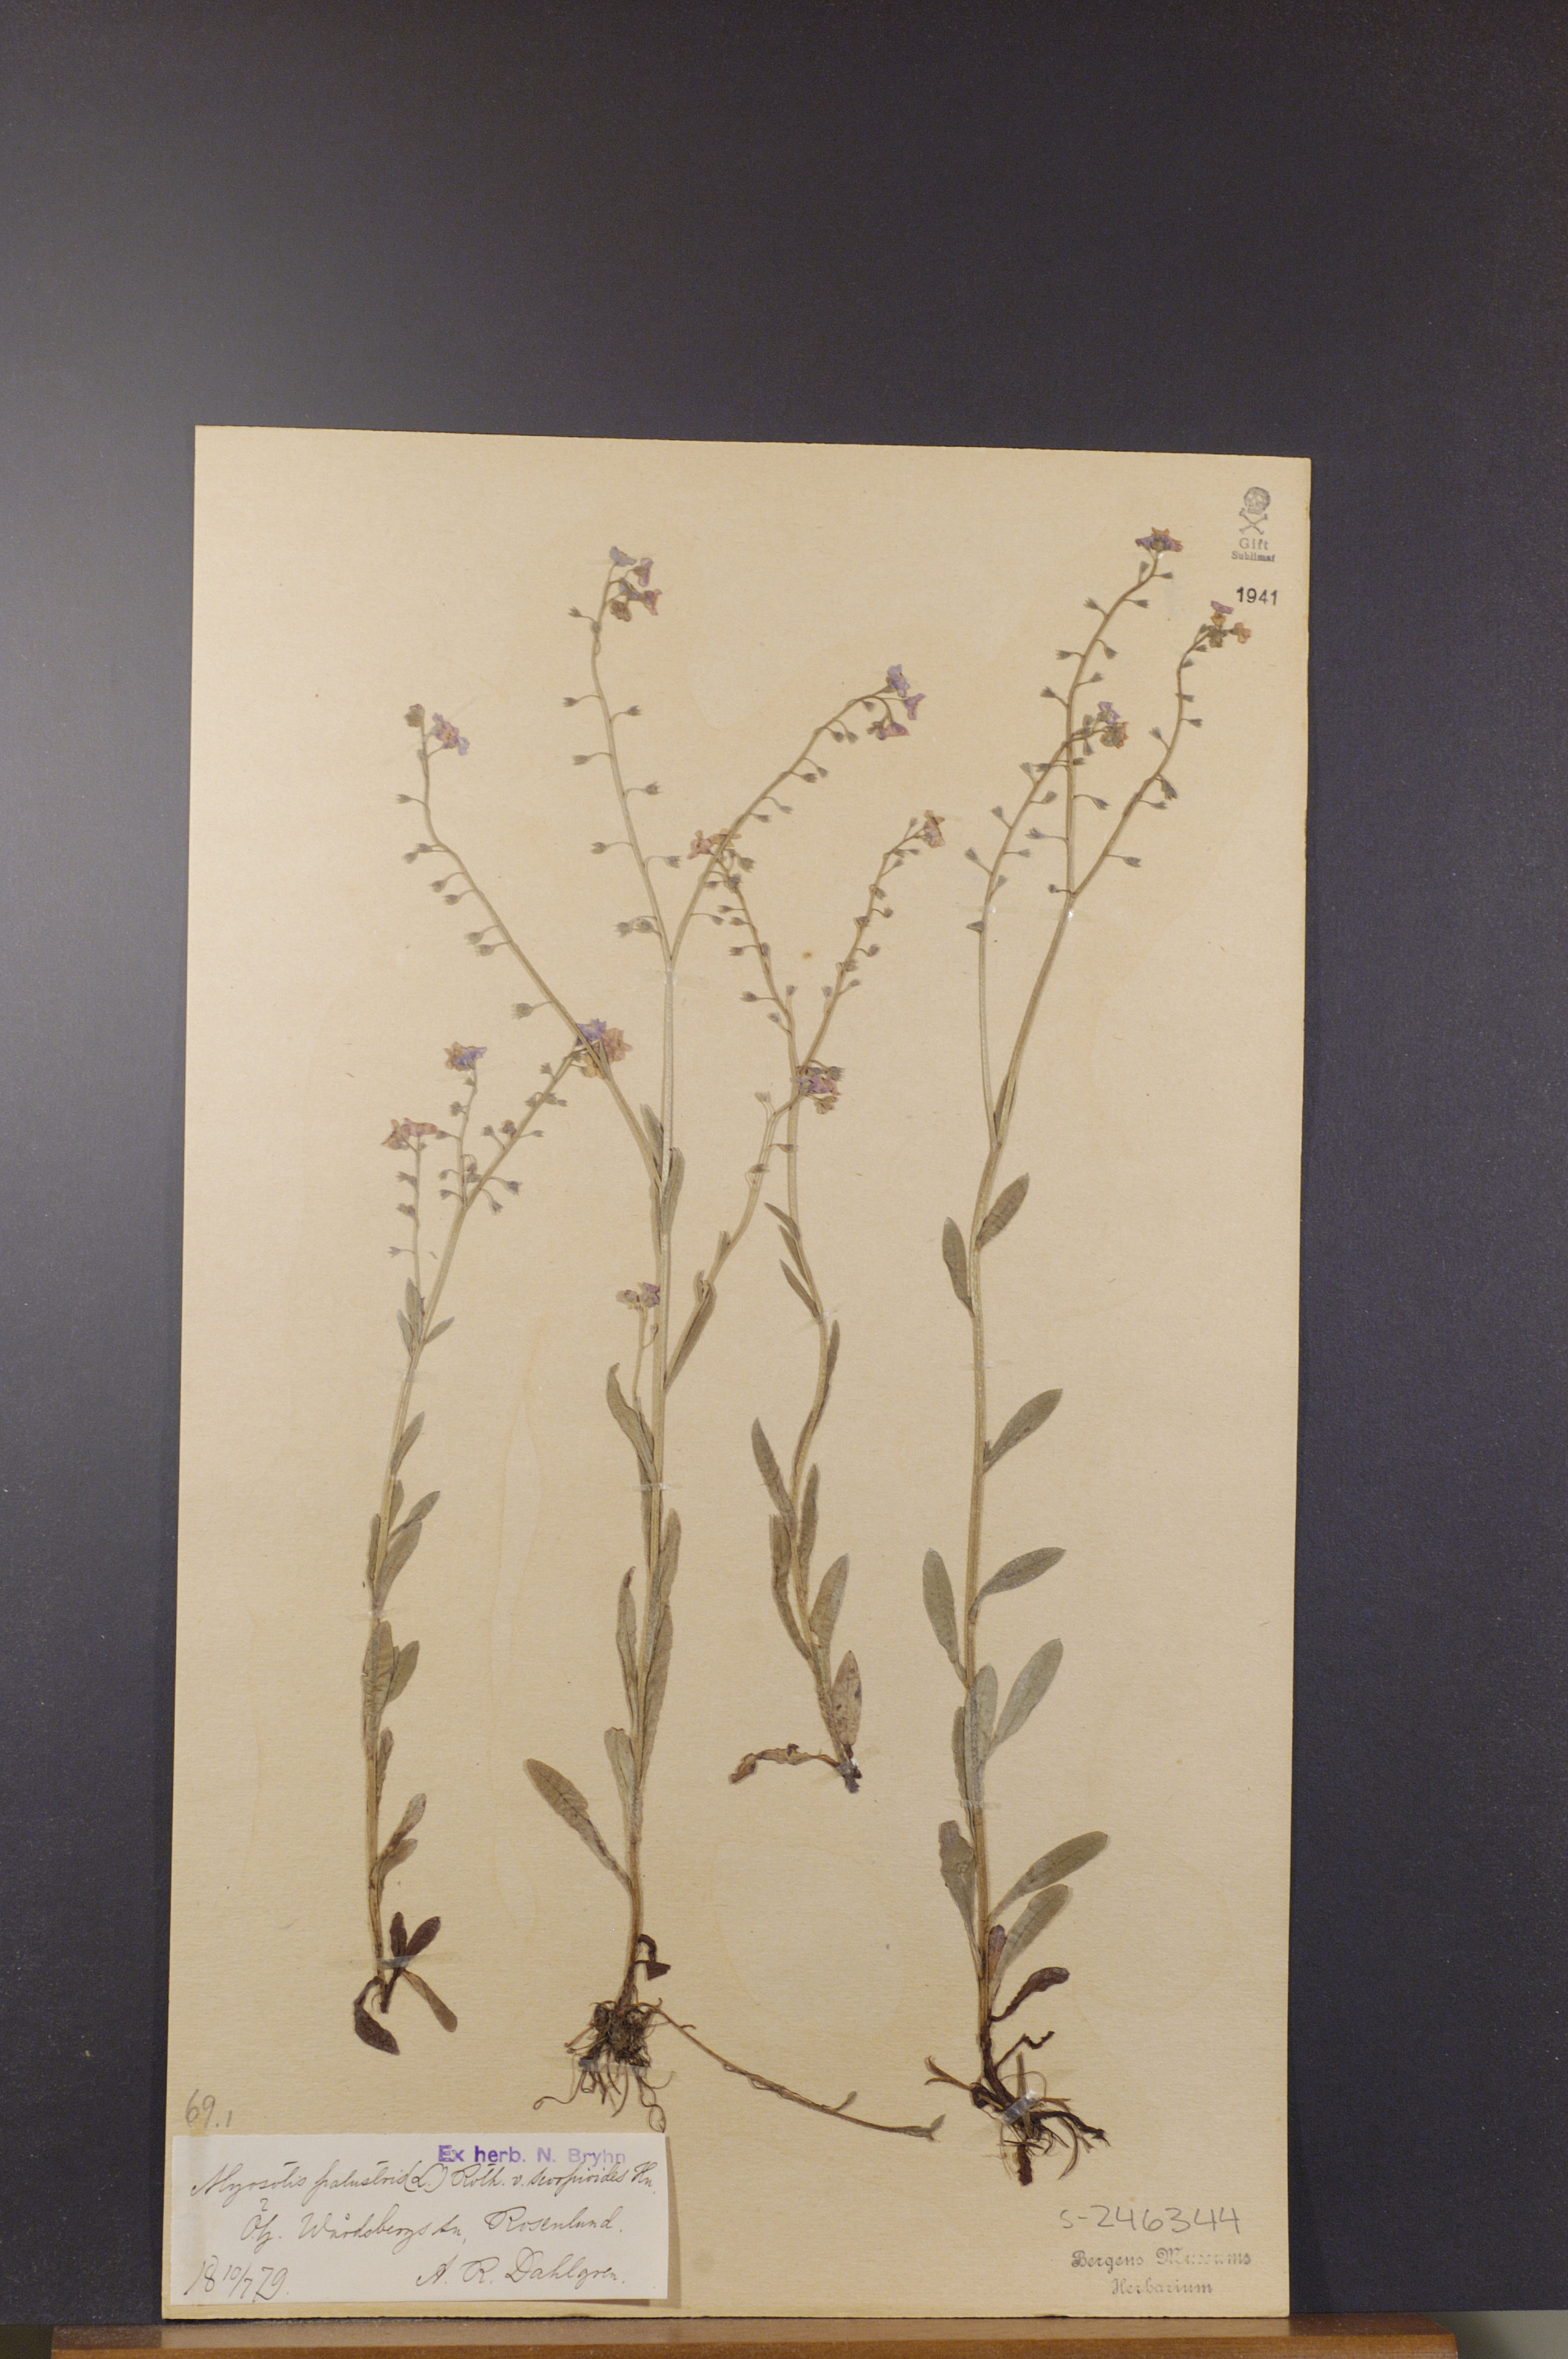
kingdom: Plantae
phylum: Tracheophyta
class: Magnoliopsida
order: Boraginales
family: Boraginaceae
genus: Myosotis
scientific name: Myosotis scorpioides
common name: Water forget-me-not
